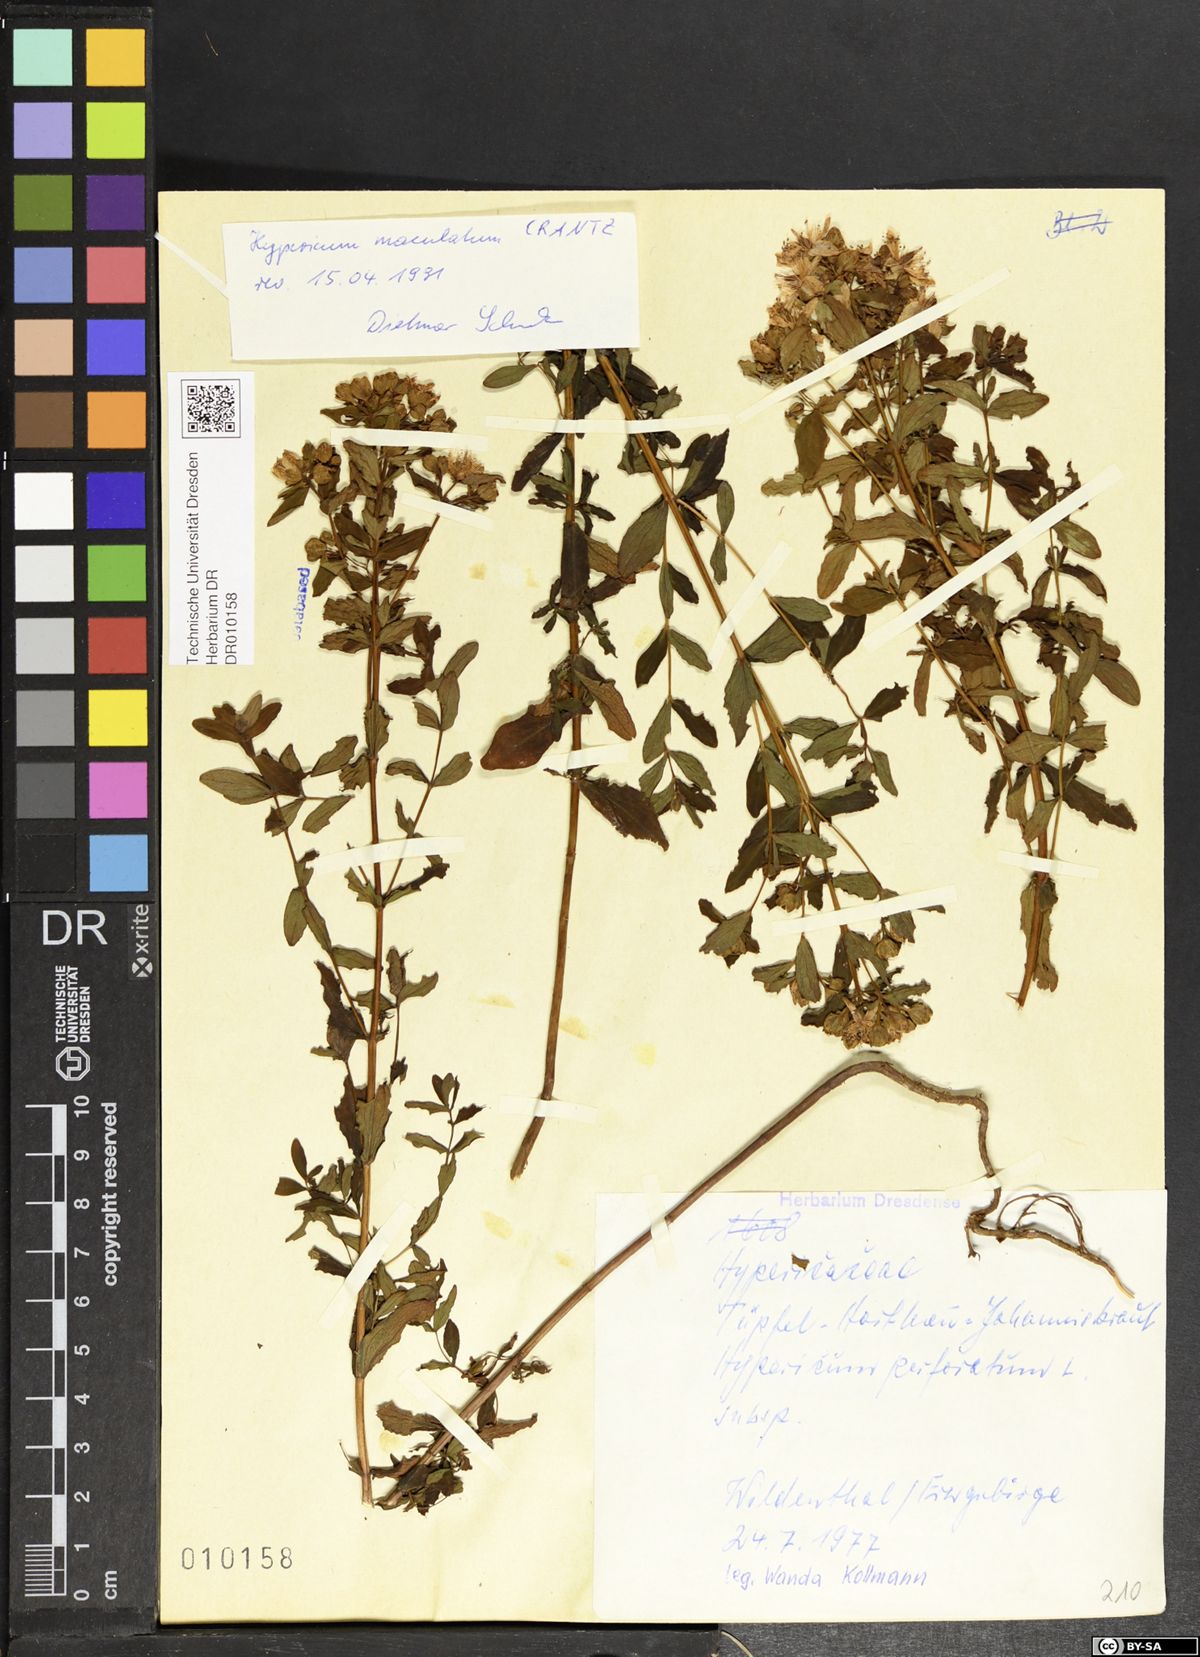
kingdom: Plantae
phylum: Tracheophyta
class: Magnoliopsida
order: Malpighiales
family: Hypericaceae
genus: Hypericum
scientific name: Hypericum maculatum
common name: Imperforate st. john's-wort
